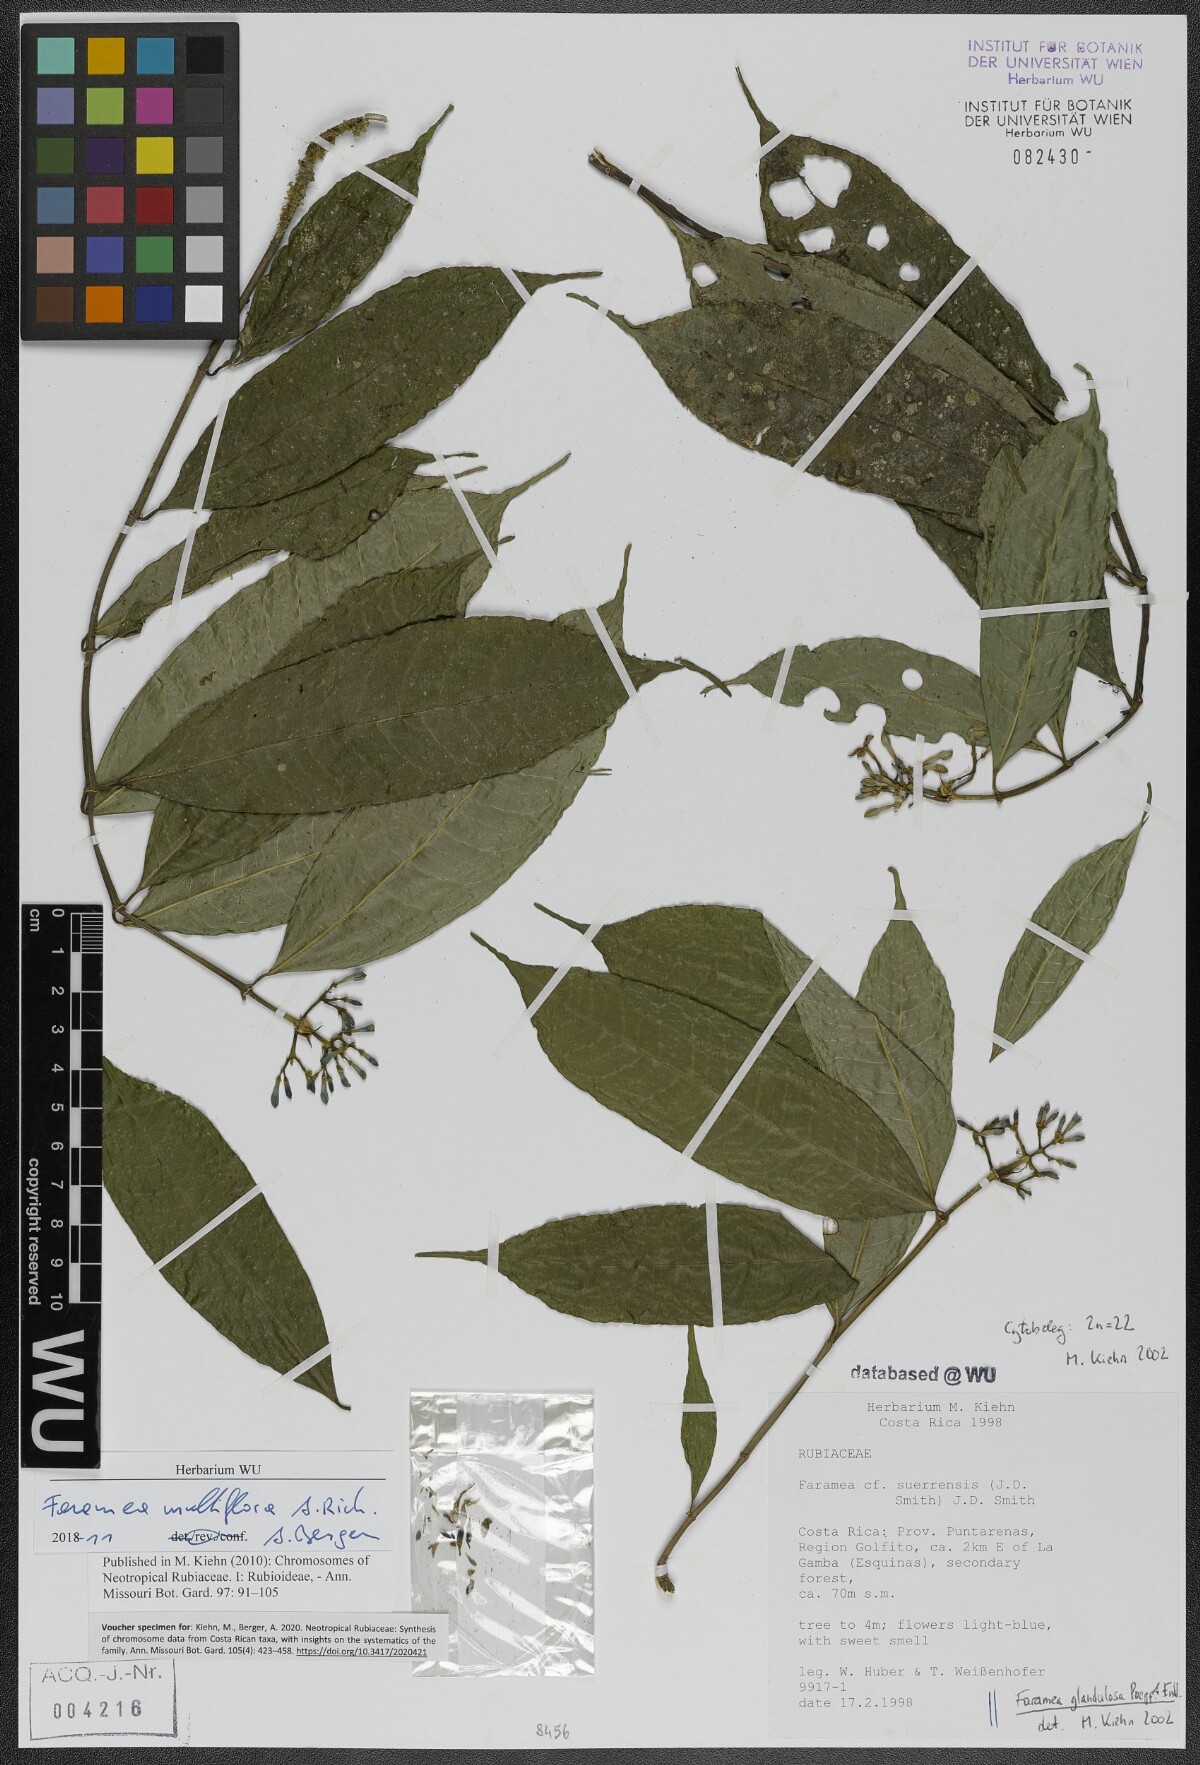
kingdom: Plantae
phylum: Tracheophyta
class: Magnoliopsida
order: Gentianales
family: Rubiaceae
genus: Faramea
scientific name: Faramea multiflora
